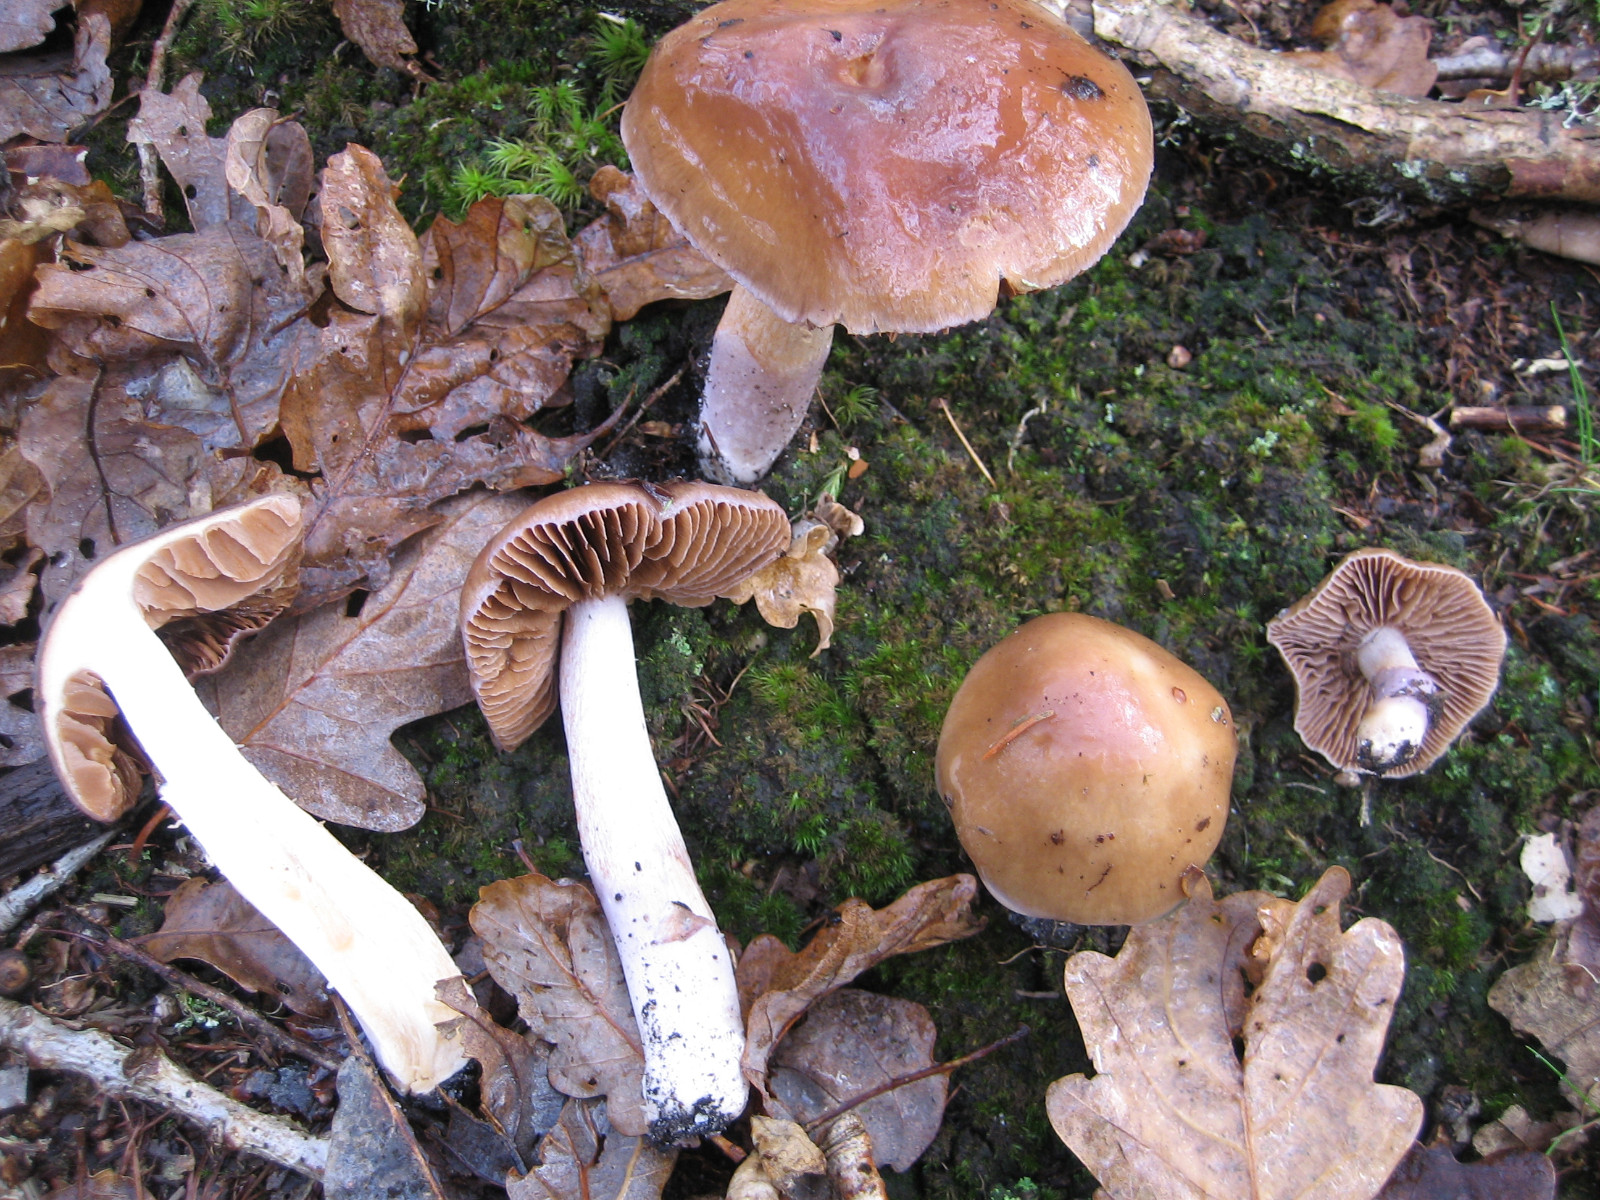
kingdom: Fungi
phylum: Basidiomycota
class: Agaricomycetes
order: Agaricales
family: Cortinariaceae
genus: Cortinarius
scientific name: Cortinarius
